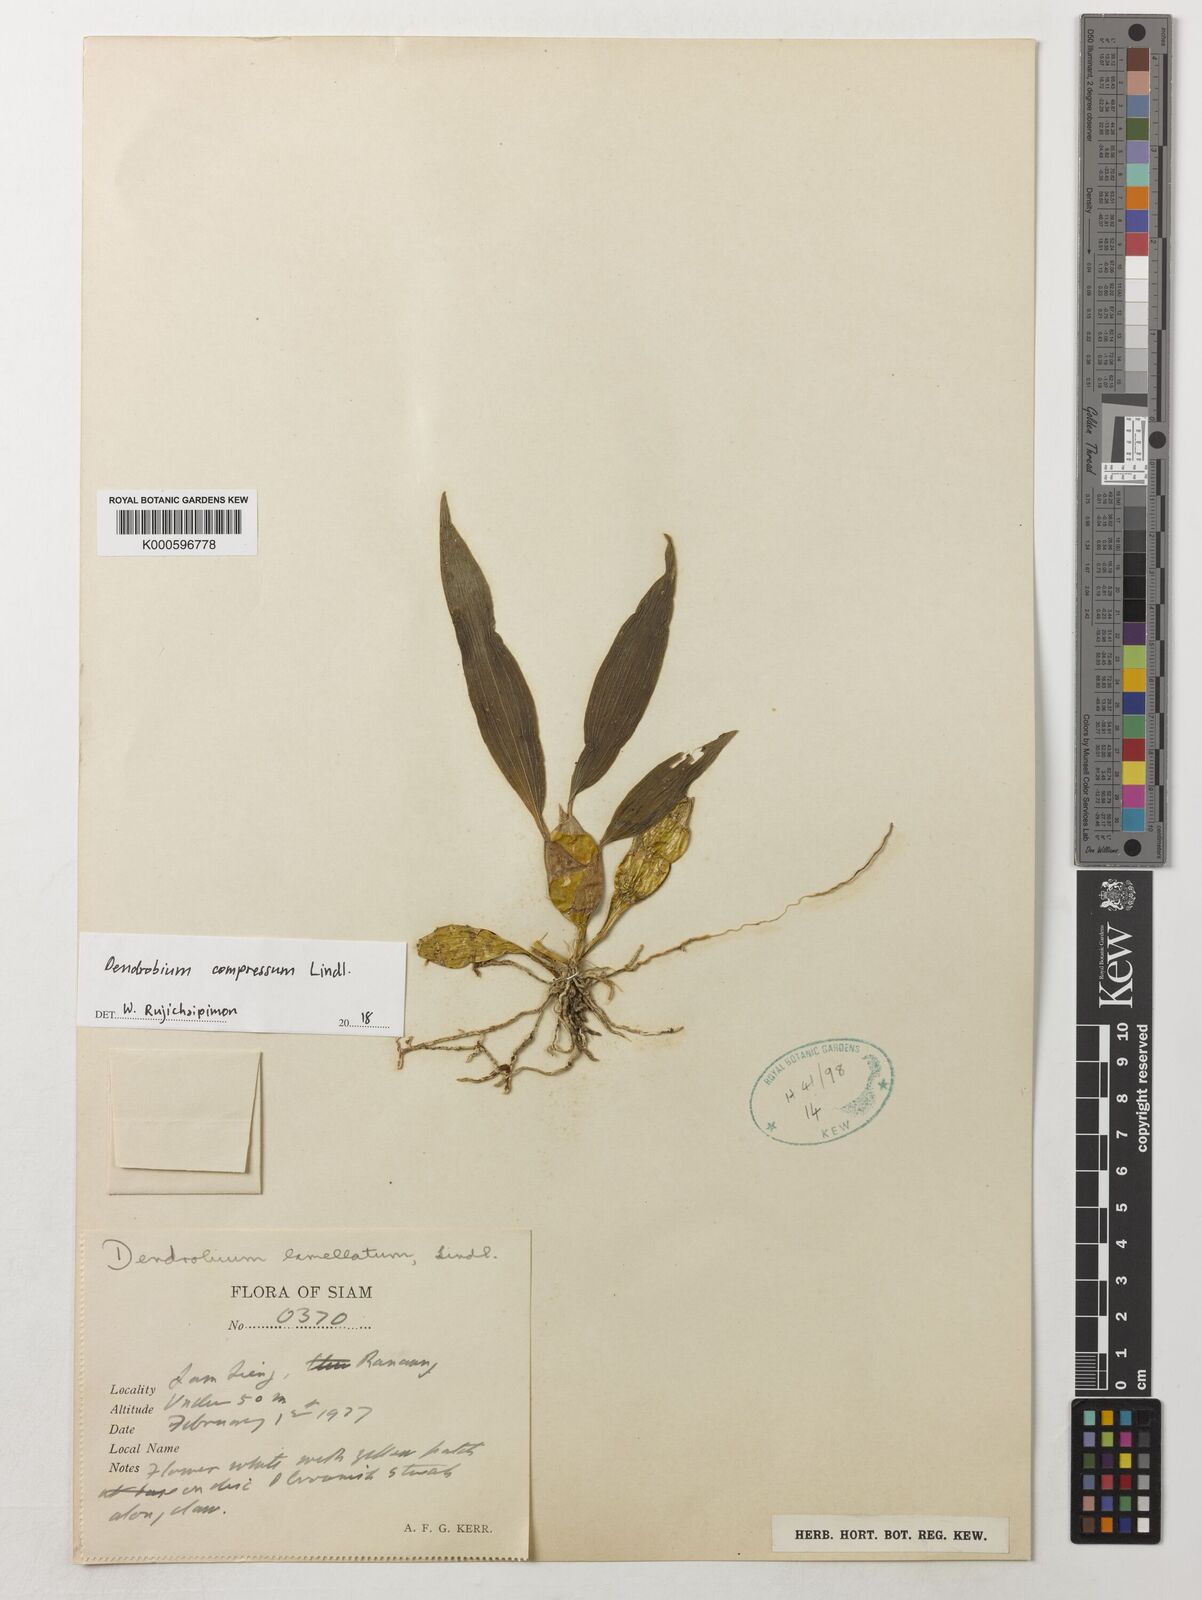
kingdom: Plantae
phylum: Tracheophyta
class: Liliopsida
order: Asparagales
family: Orchidaceae
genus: Dendrobium
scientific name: Dendrobium lamellatum
